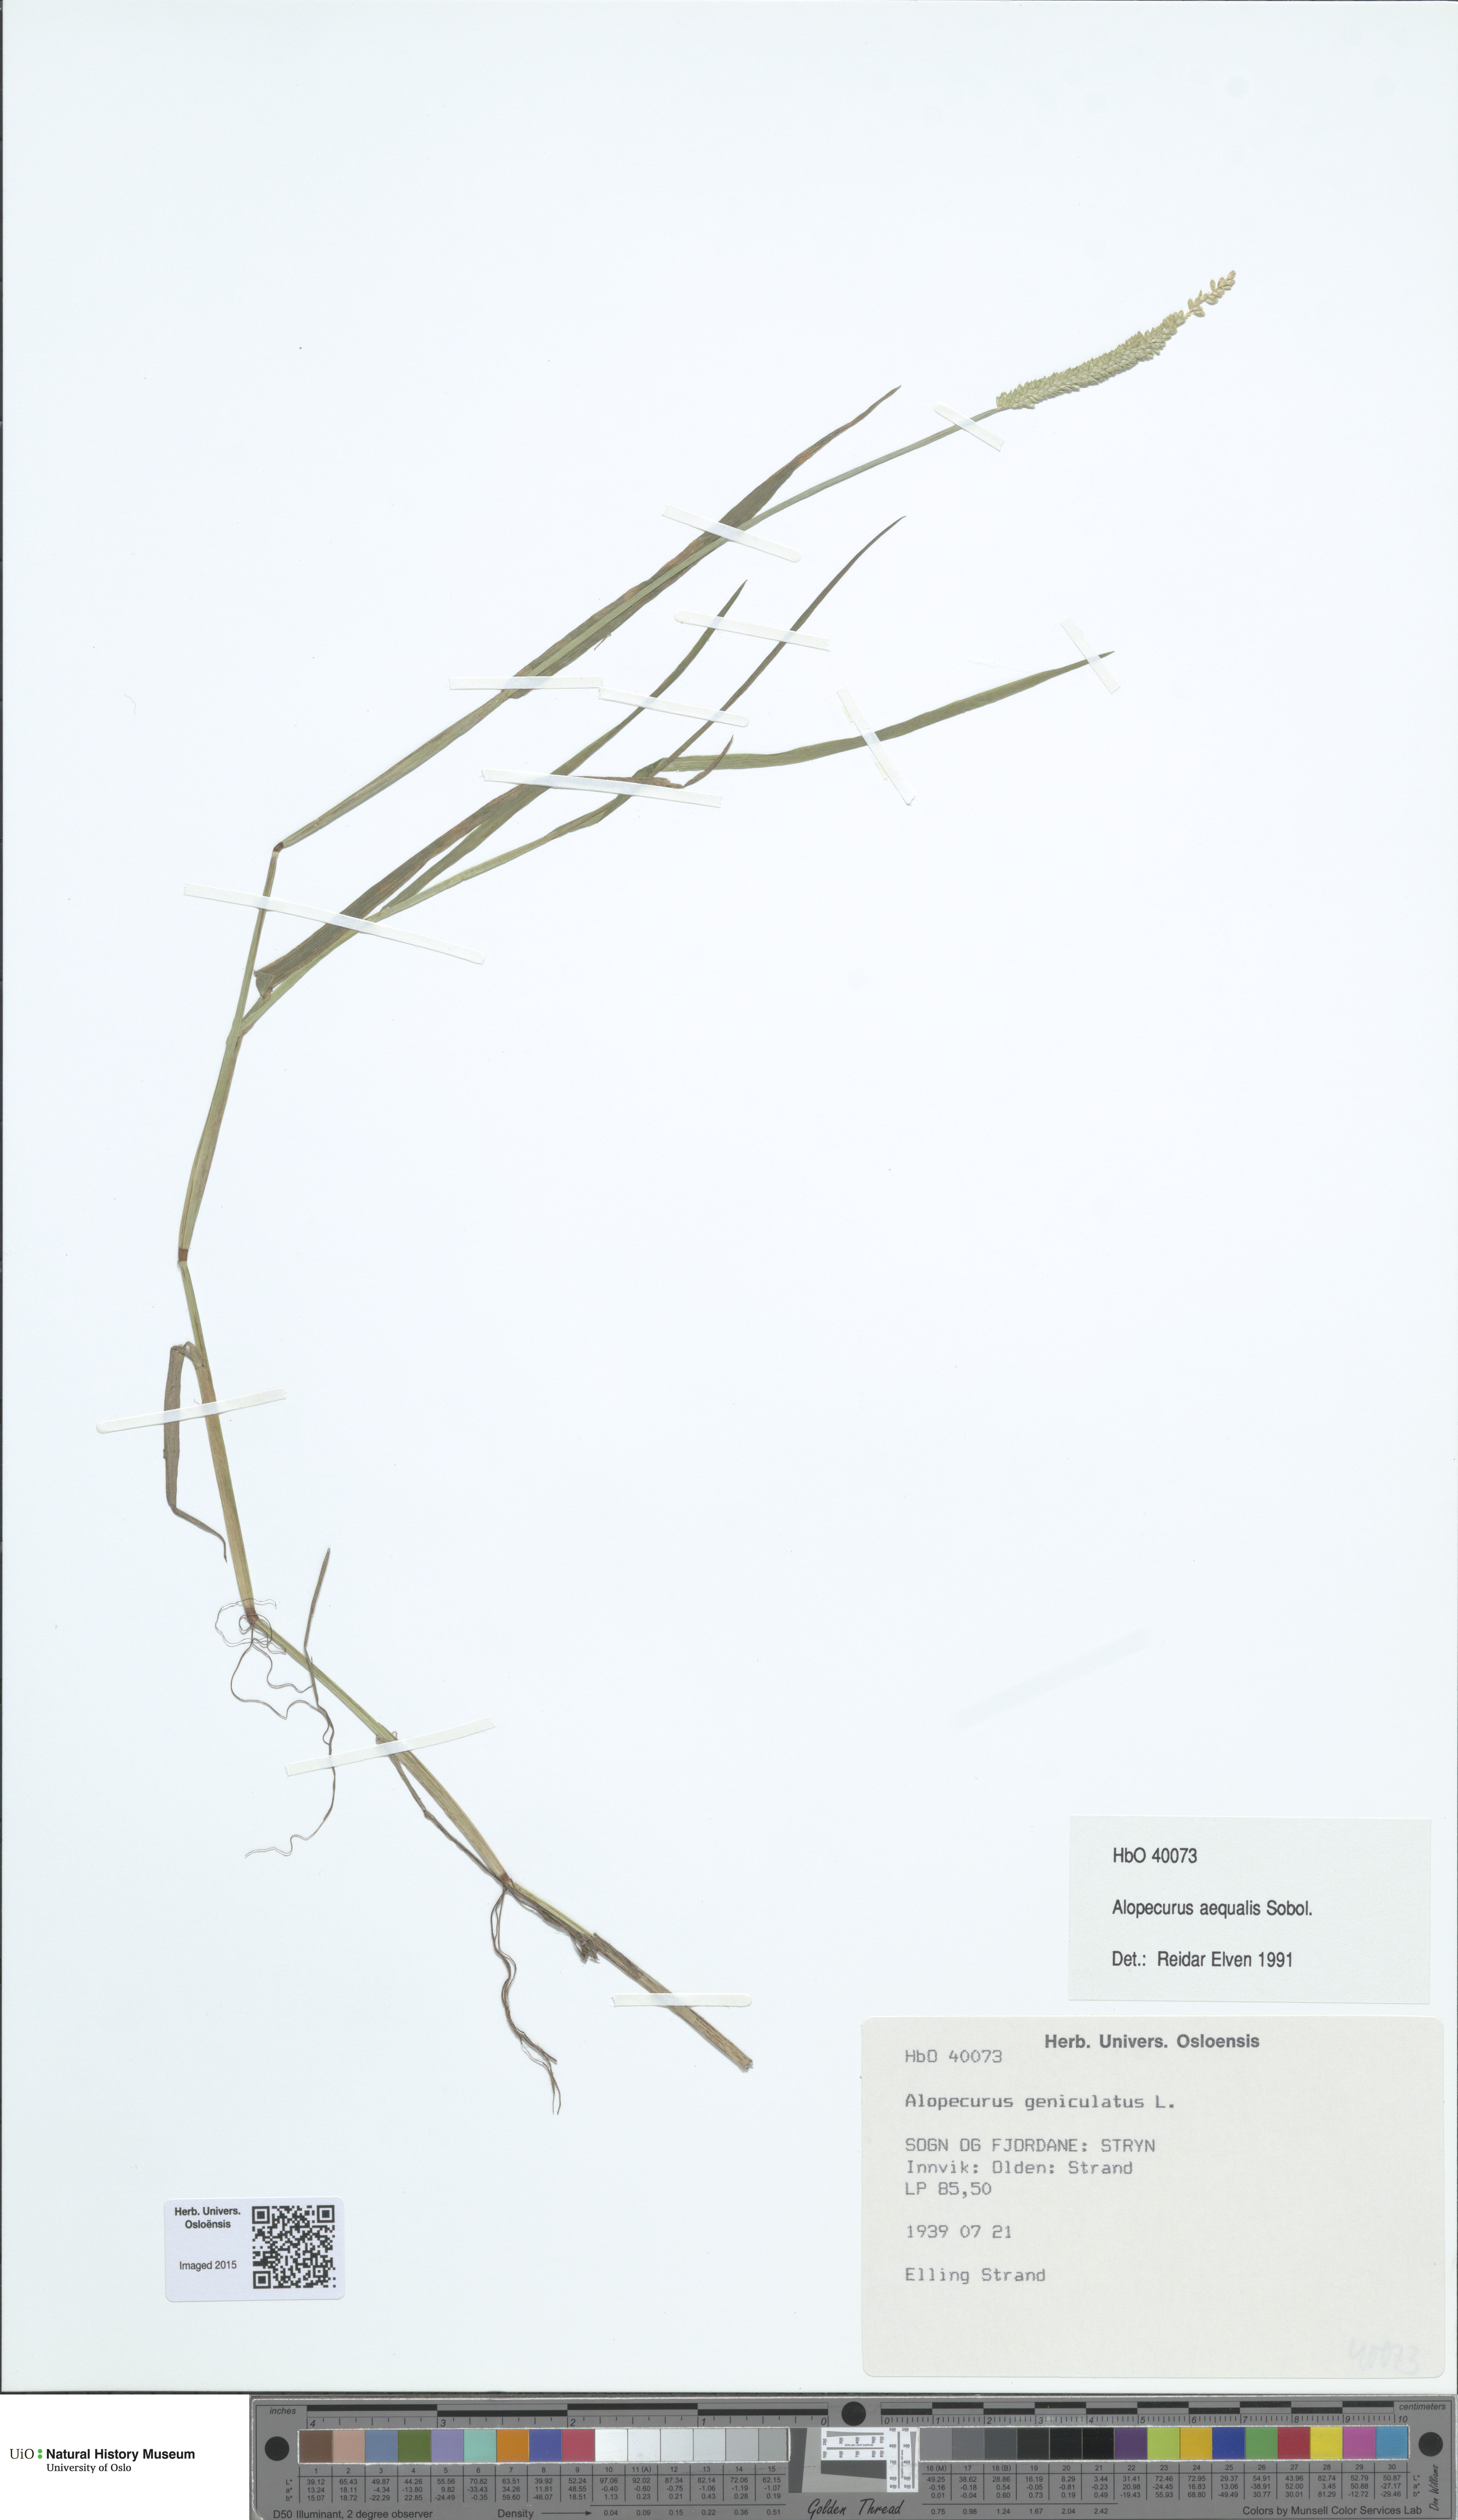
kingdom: Plantae
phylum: Tracheophyta
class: Liliopsida
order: Poales
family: Poaceae
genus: Alopecurus
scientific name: Alopecurus aequalis
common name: Orange foxtail
